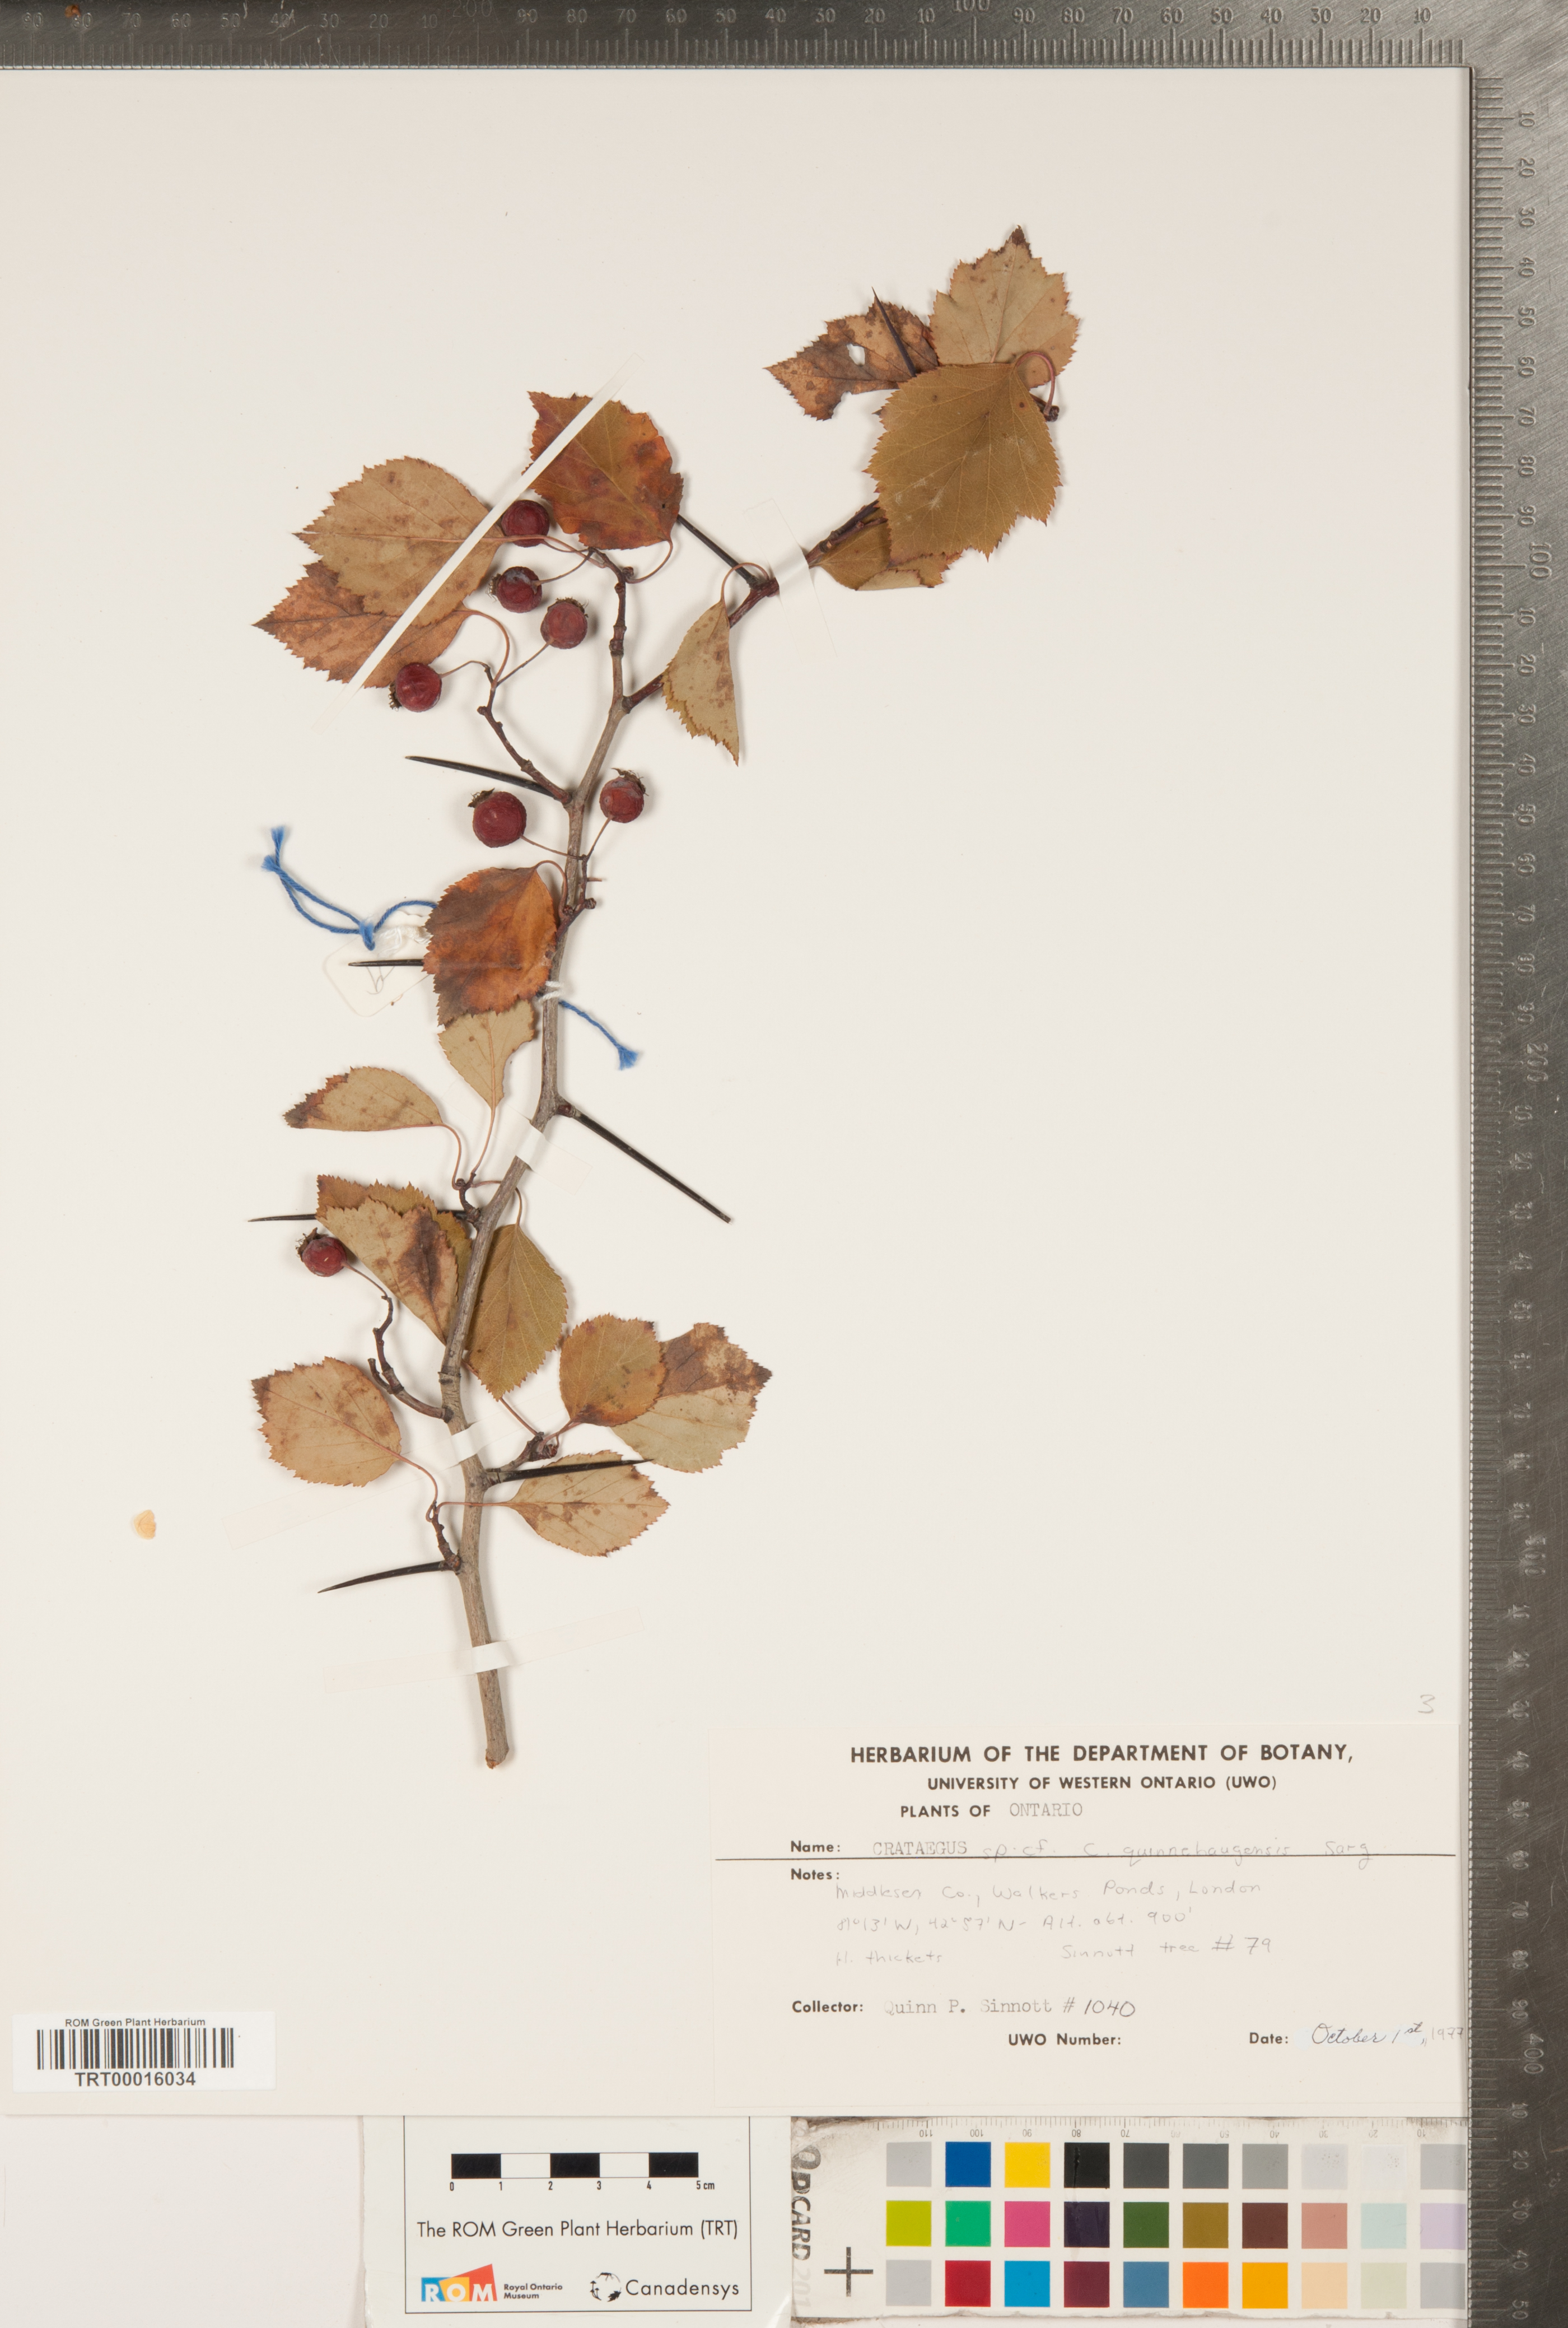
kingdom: Plantae
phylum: Tracheophyta
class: Magnoliopsida
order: Rosales
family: Rosaceae
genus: Crataegus
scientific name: Crataegus quinebaugensis
